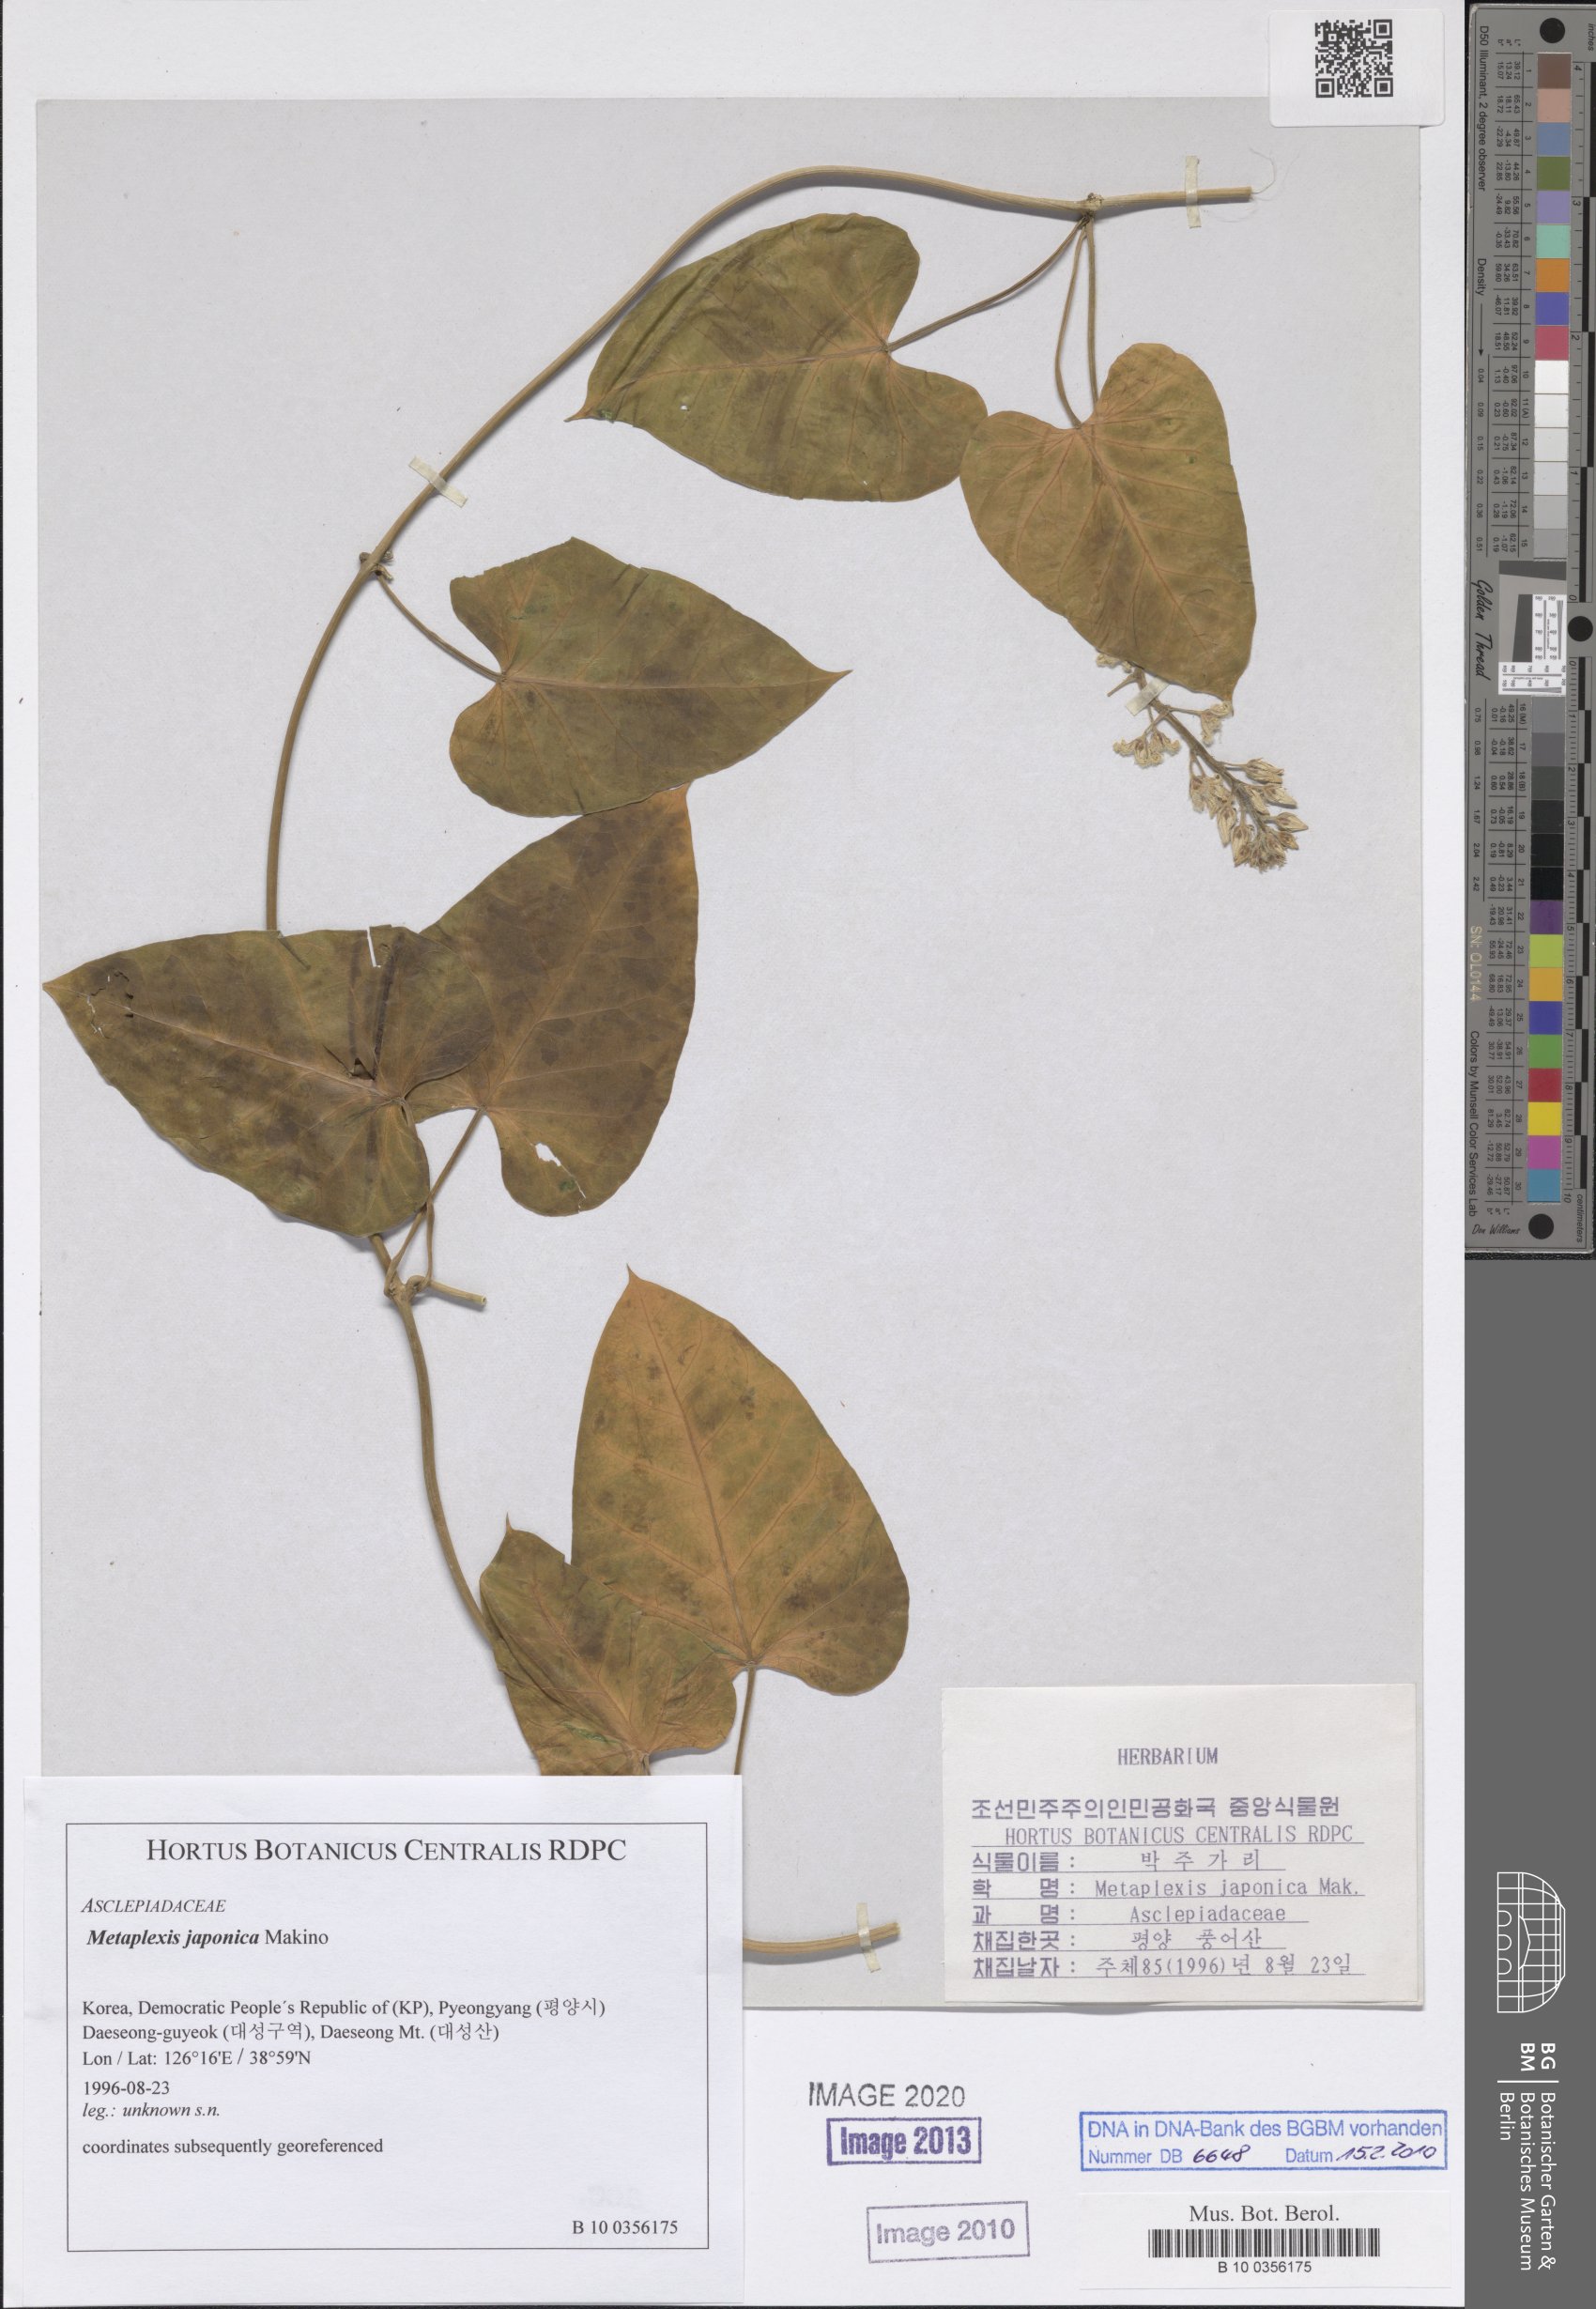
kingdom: Plantae
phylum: Tracheophyta
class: Magnoliopsida
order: Gentianales
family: Apocynaceae
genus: Cynanchum
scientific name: Cynanchum rostellatum
